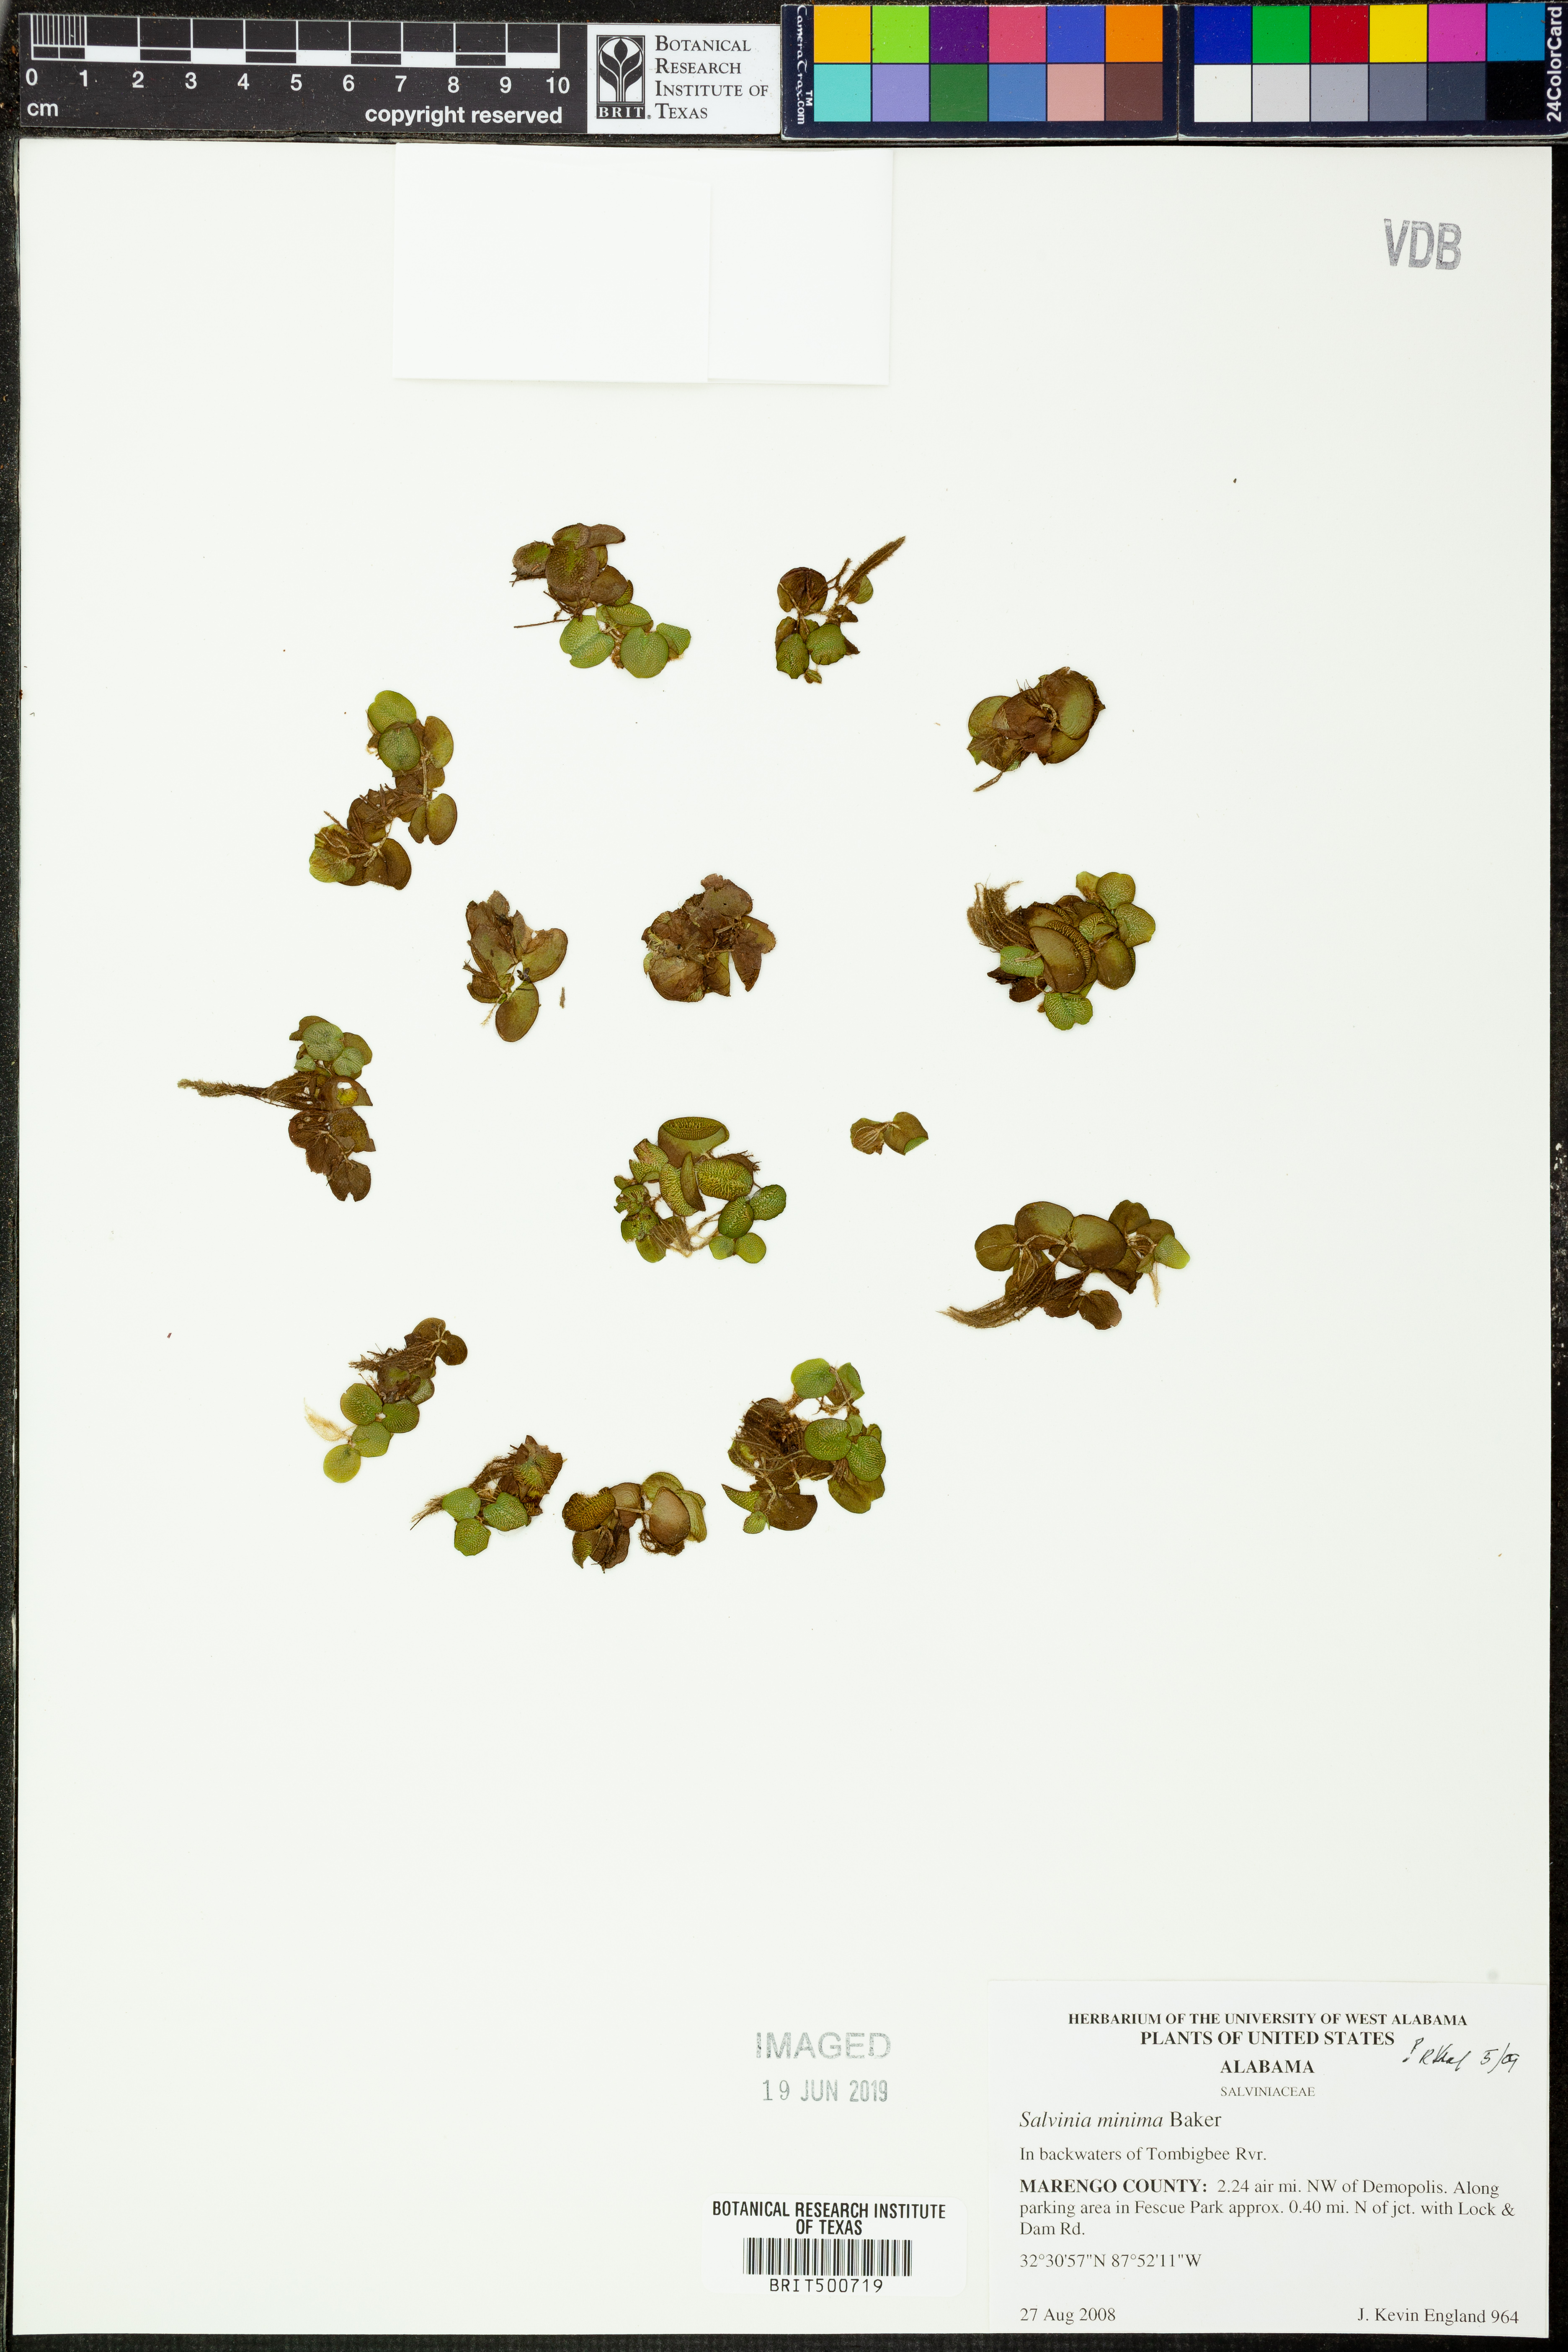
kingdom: Plantae
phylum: Tracheophyta
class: Polypodiopsida
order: Salviniales
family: Salviniaceae
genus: Salvinia
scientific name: Salvinia minima
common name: Water spangles
